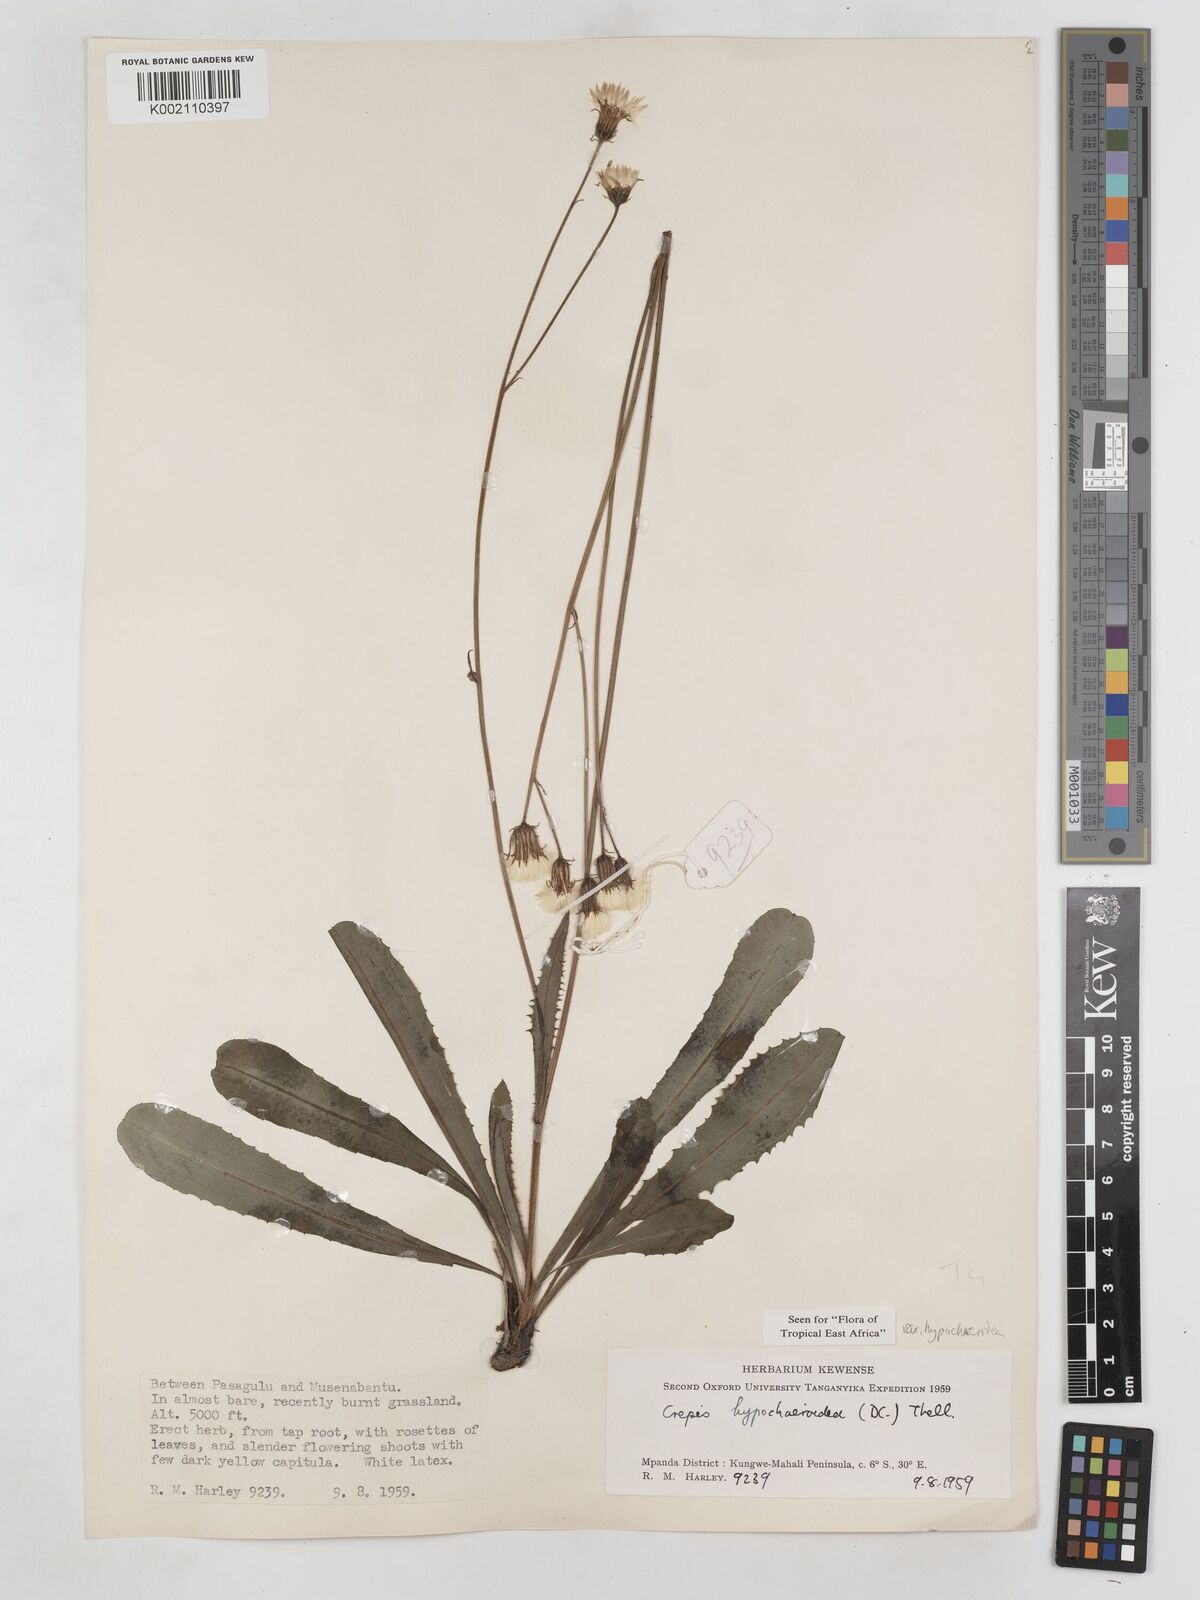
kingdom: Plantae
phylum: Tracheophyta
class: Magnoliopsida
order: Asterales
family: Asteraceae
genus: Crepis
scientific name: Crepis hypochoeridea
